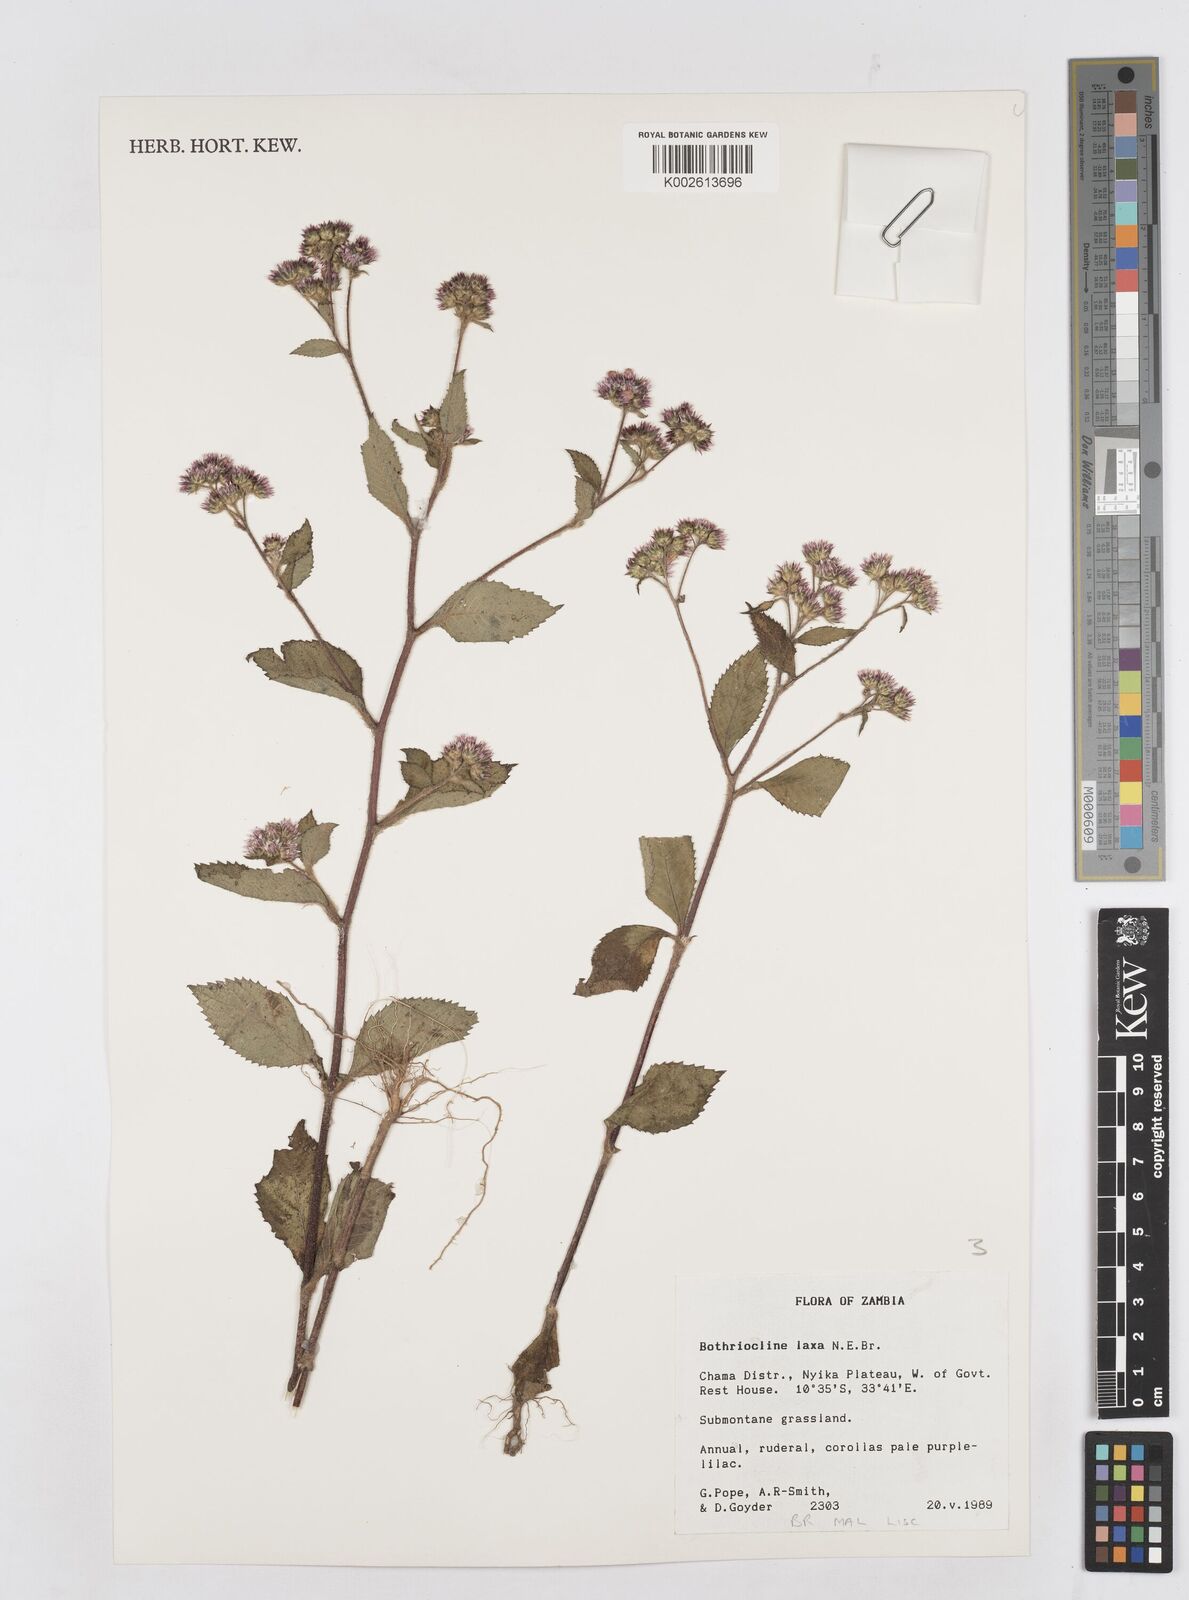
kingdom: Plantae
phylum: Tracheophyta
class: Magnoliopsida
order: Asterales
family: Asteraceae
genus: Bothriocline
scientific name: Bothriocline laxa
